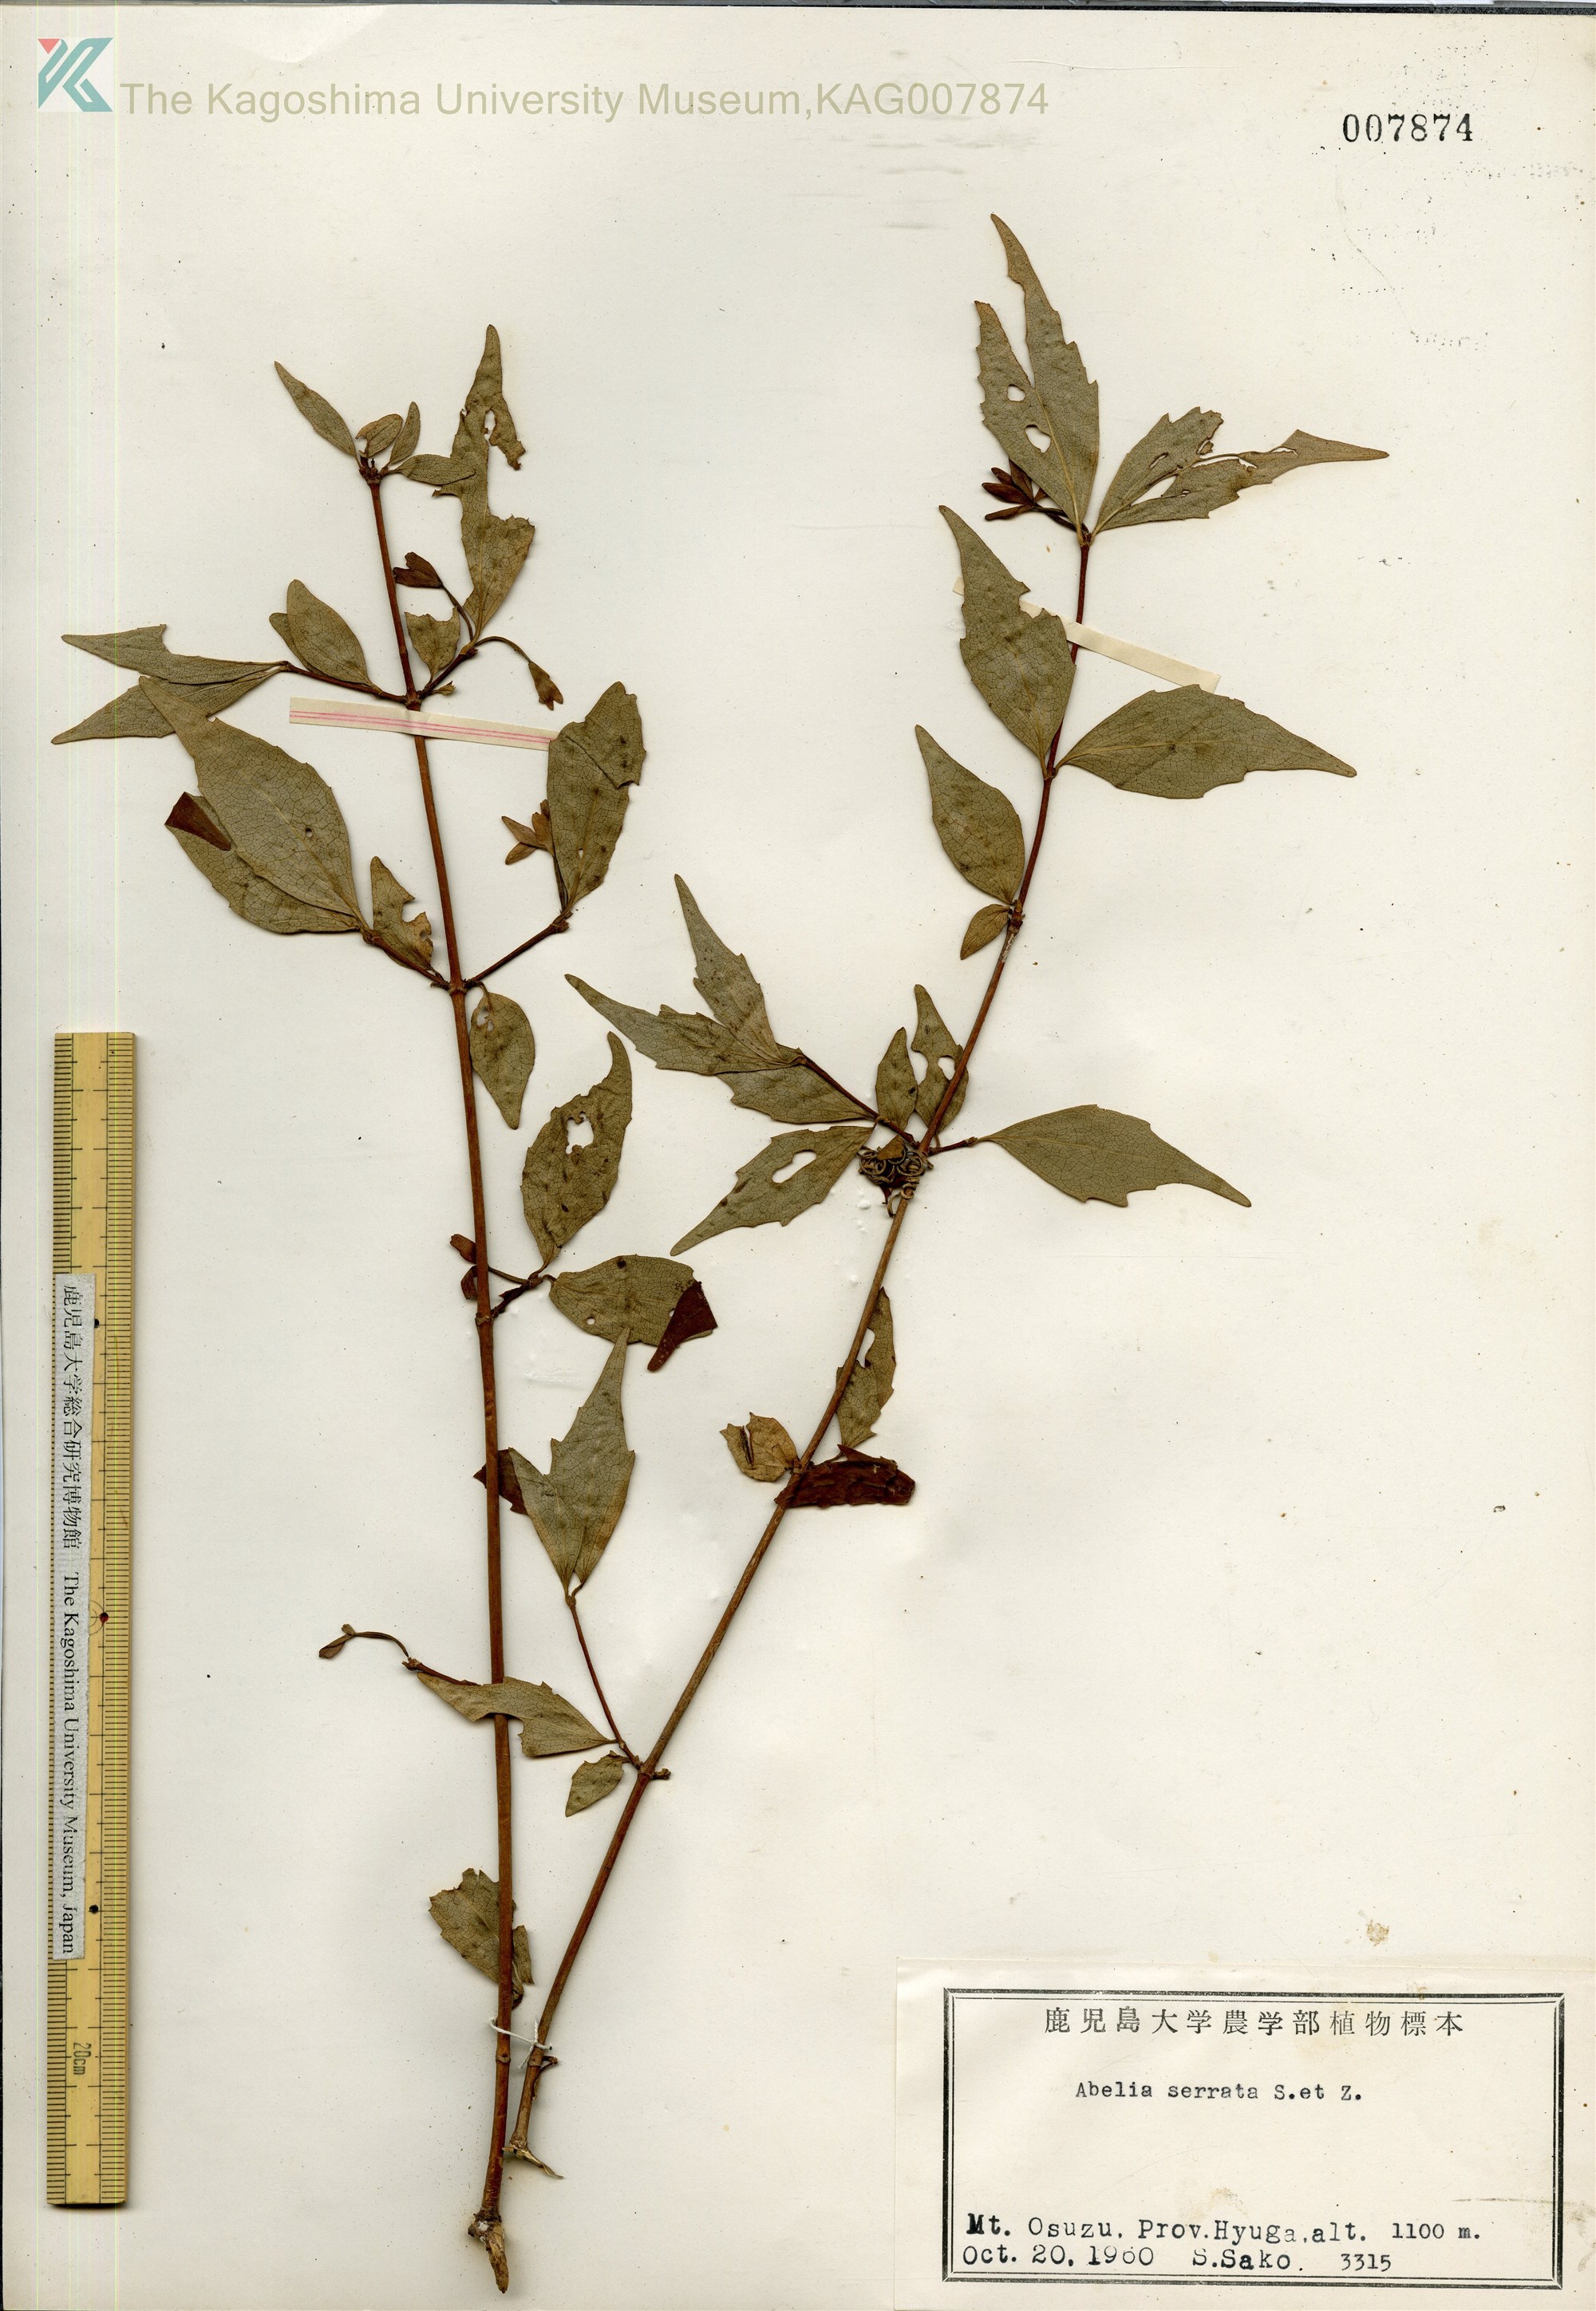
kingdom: Plantae
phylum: Tracheophyta
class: Magnoliopsida
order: Dipsacales
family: Caprifoliaceae
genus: Diabelia
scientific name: Diabelia serrata
